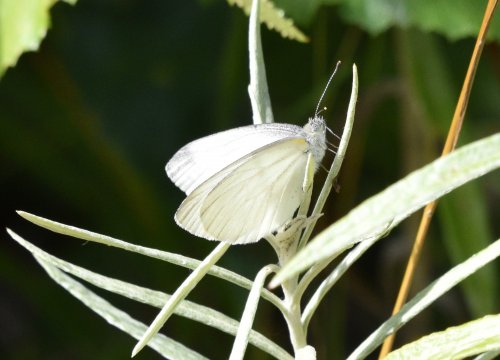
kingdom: Animalia
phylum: Arthropoda
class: Insecta
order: Lepidoptera
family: Pieridae
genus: Pieris
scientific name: Pieris oleracea
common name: Mustard White
